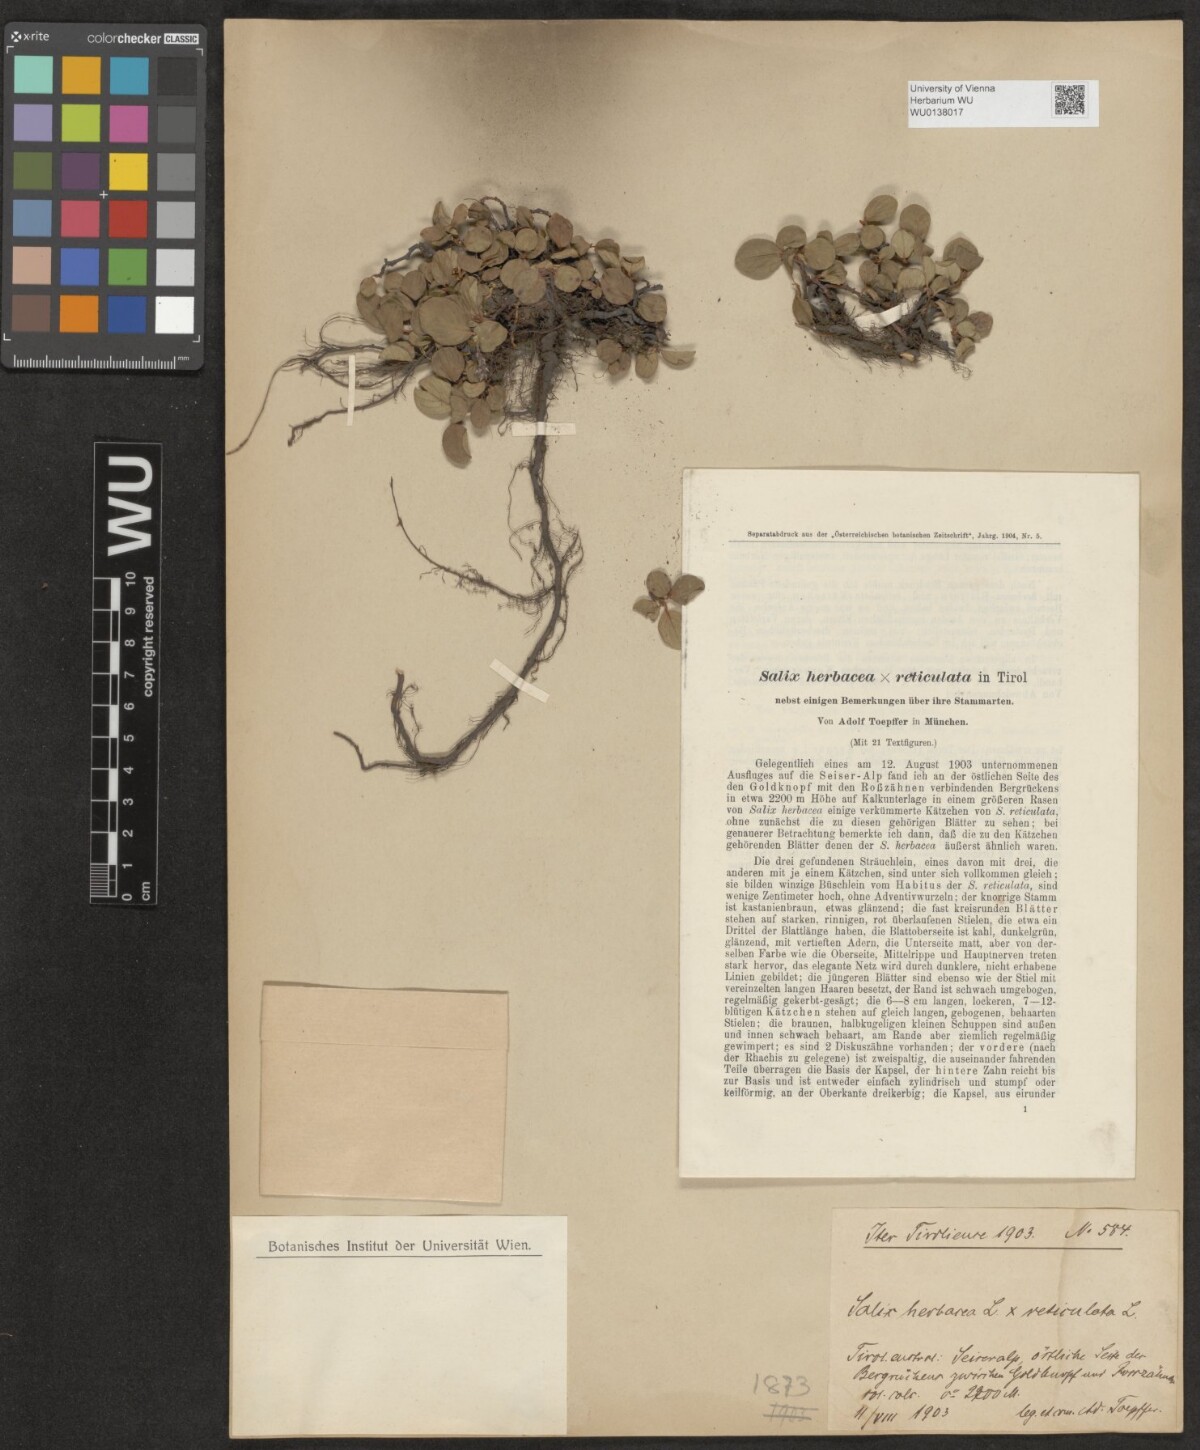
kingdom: Plantae
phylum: Tracheophyta
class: Magnoliopsida
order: Malpighiales
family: Salicaceae
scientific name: Salicaceae
